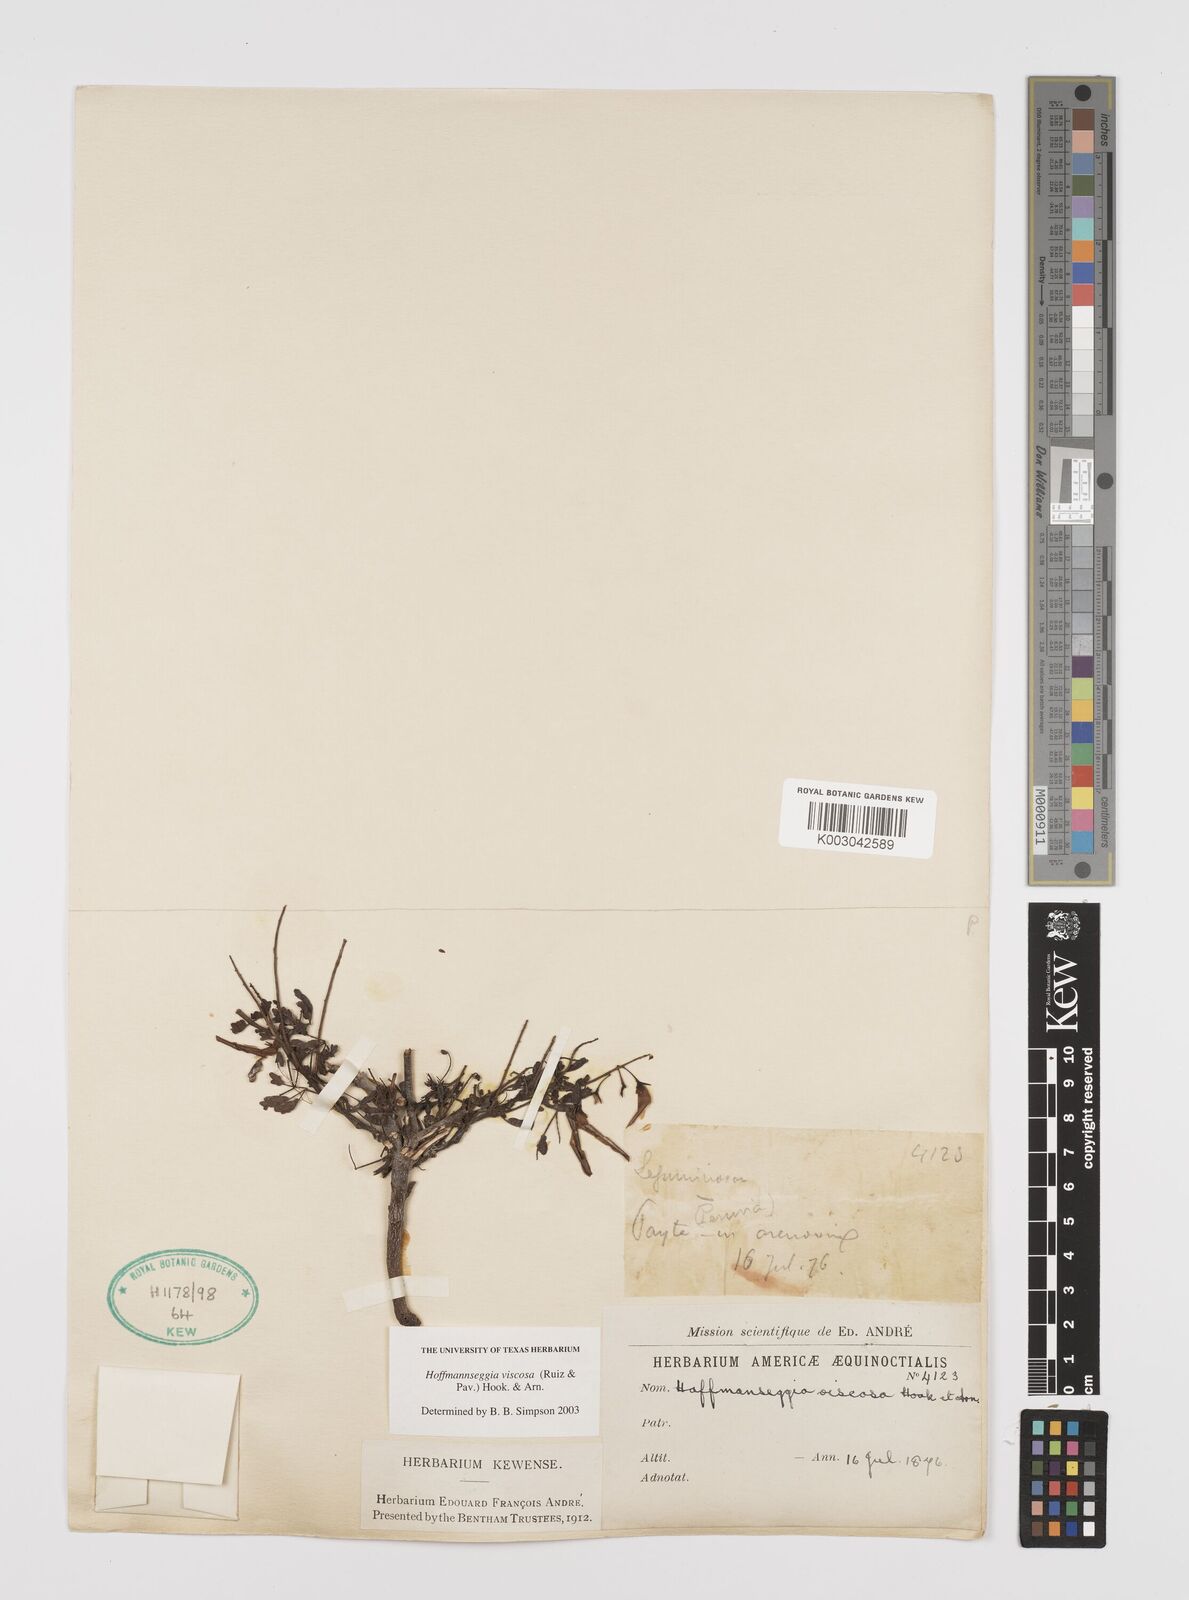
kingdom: Plantae
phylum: Tracheophyta
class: Magnoliopsida
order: Fabales
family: Fabaceae
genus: Hoffmannseggia
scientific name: Hoffmannseggia viscosa
